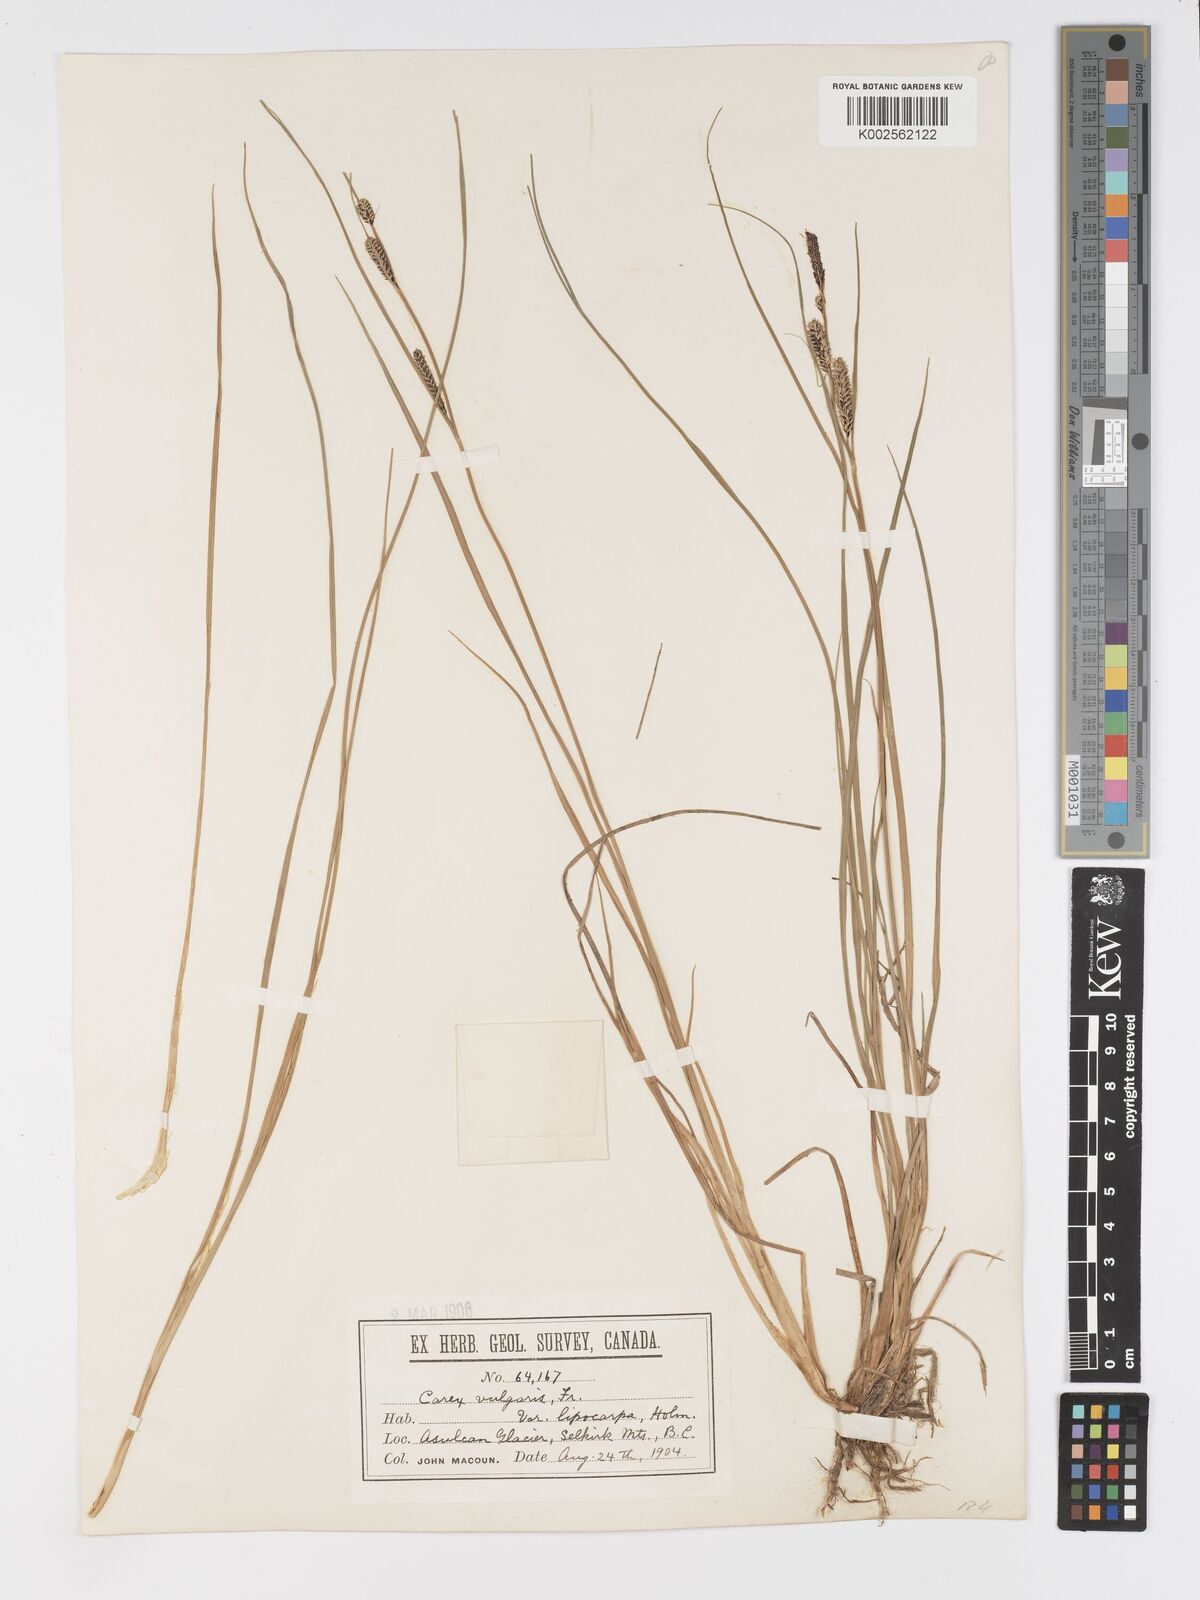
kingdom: Plantae
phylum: Tracheophyta
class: Liliopsida
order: Poales
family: Cyperaceae
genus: Carex
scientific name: Carex kelloggii
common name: Kellogg's sedge
